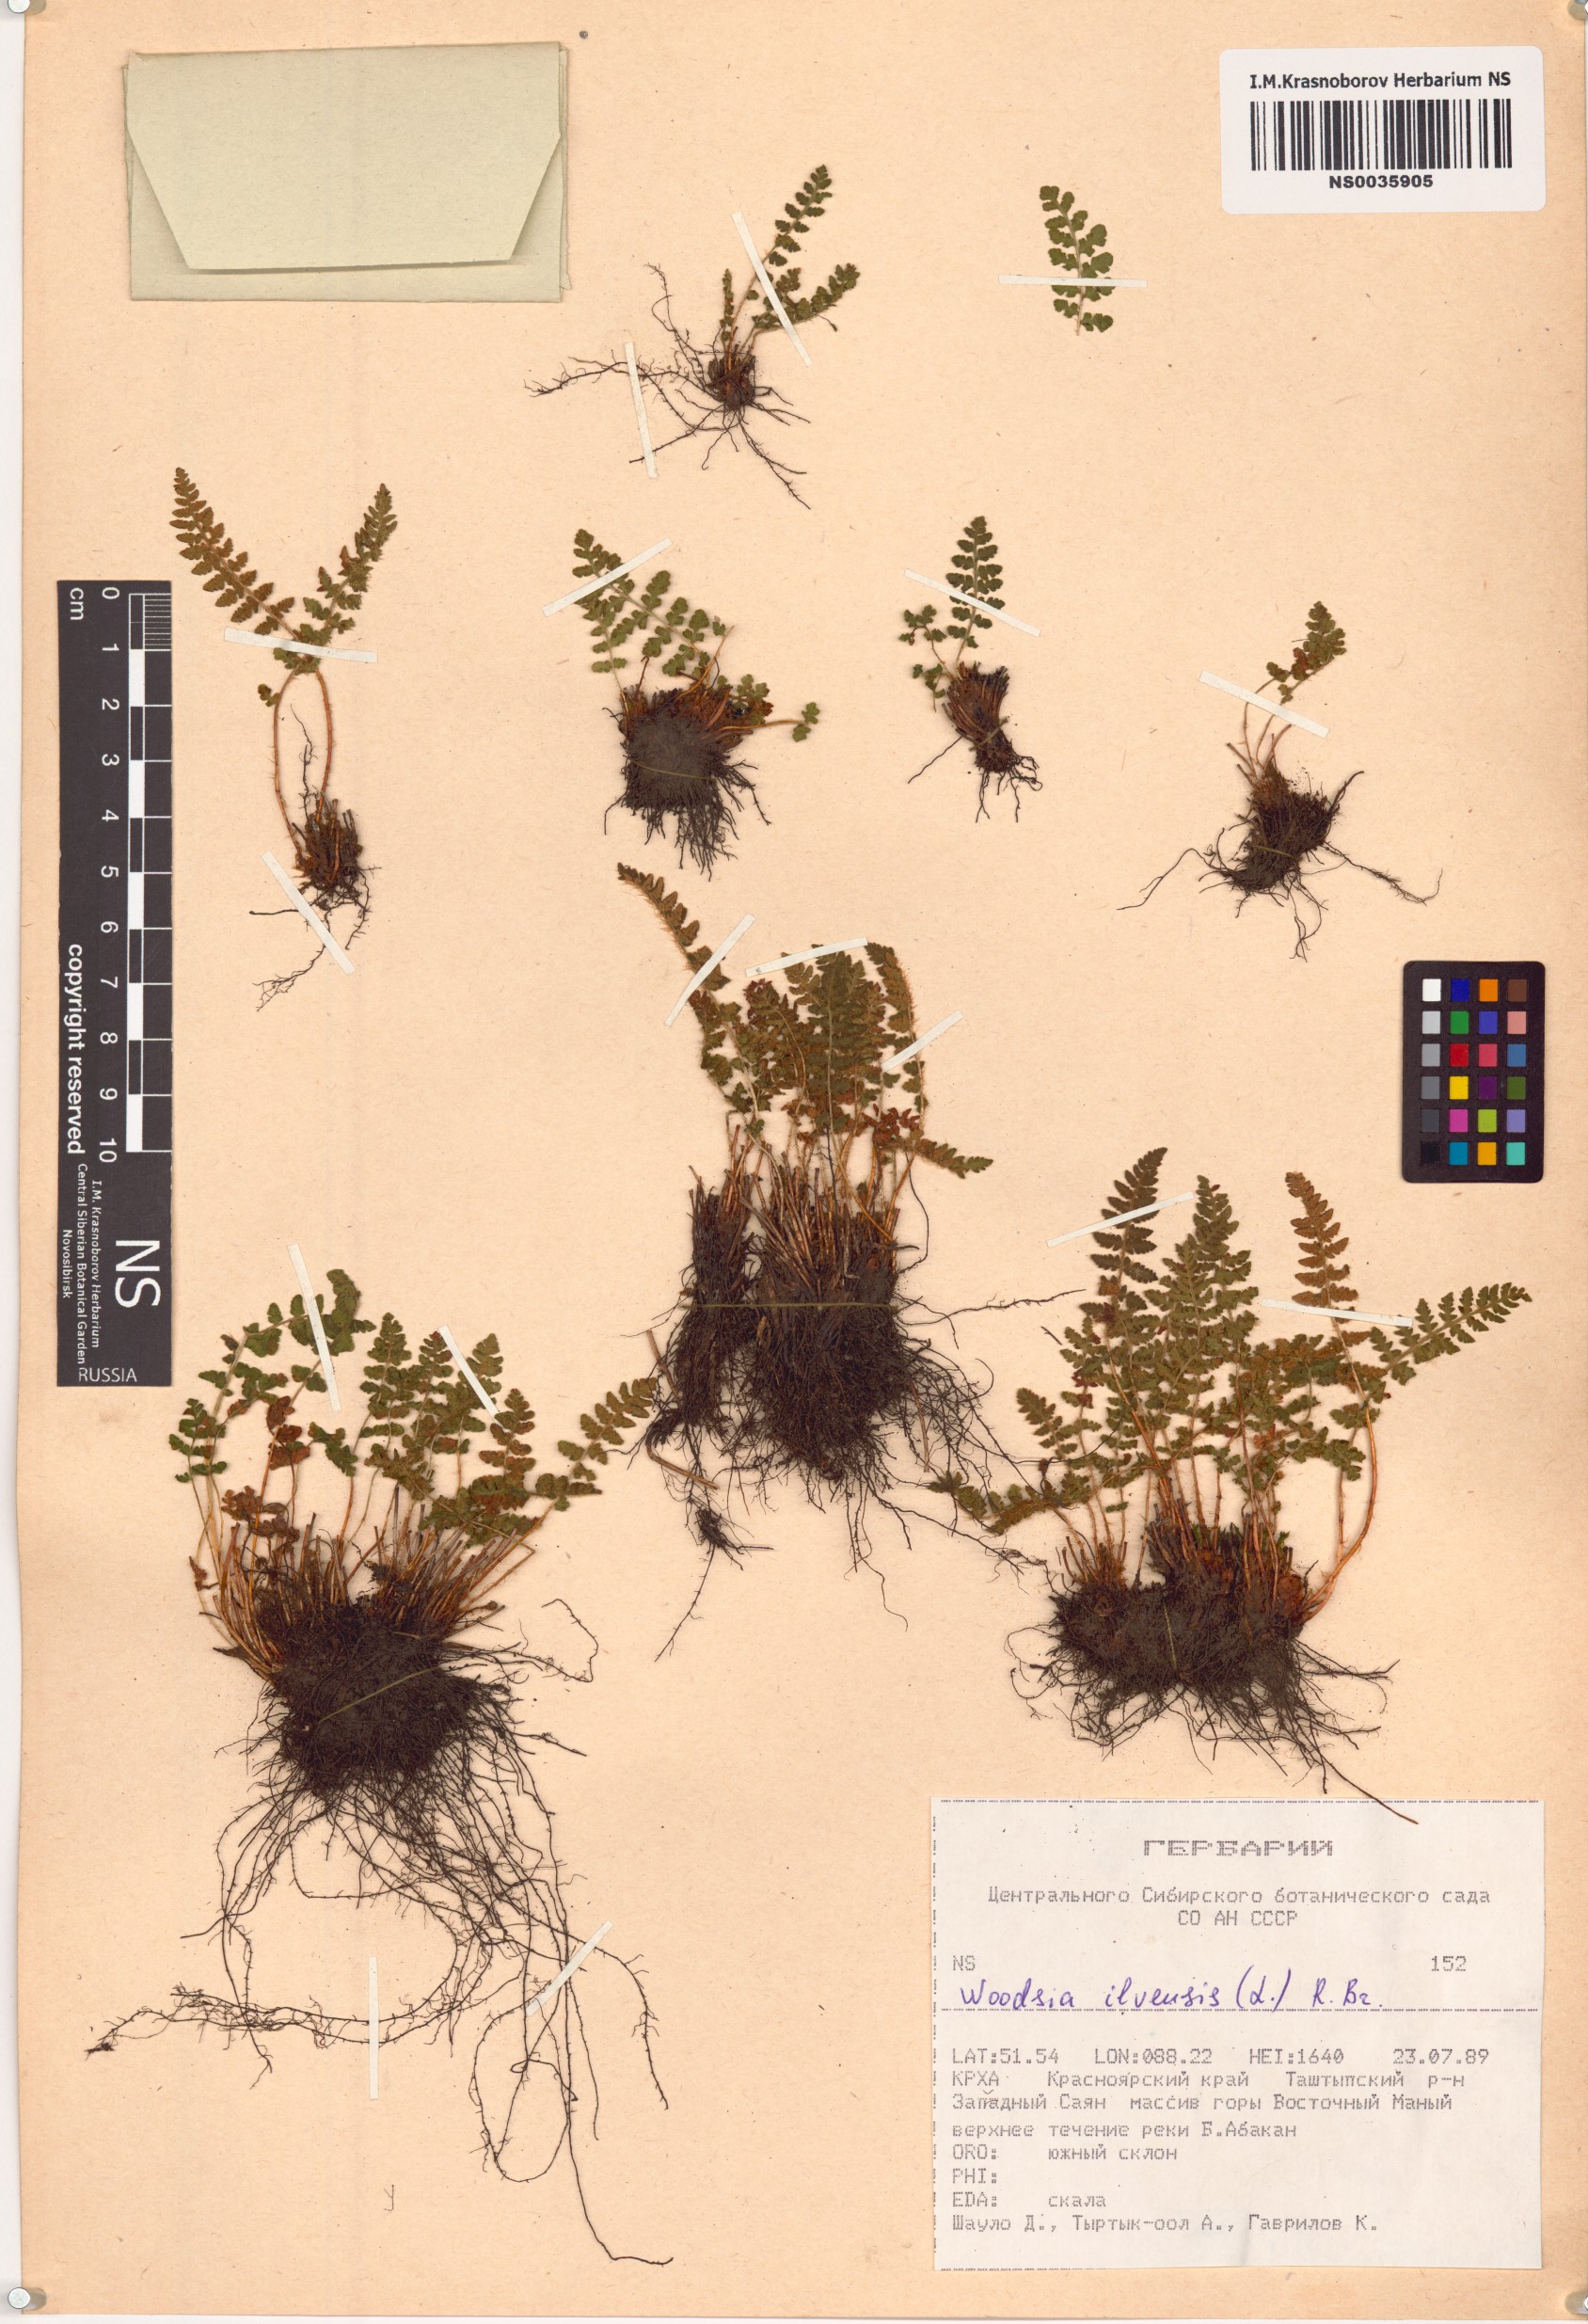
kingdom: Plantae
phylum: Tracheophyta
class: Polypodiopsida
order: Polypodiales
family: Woodsiaceae
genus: Woodsia
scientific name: Woodsia ilvensis
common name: Fragrant woodsia
